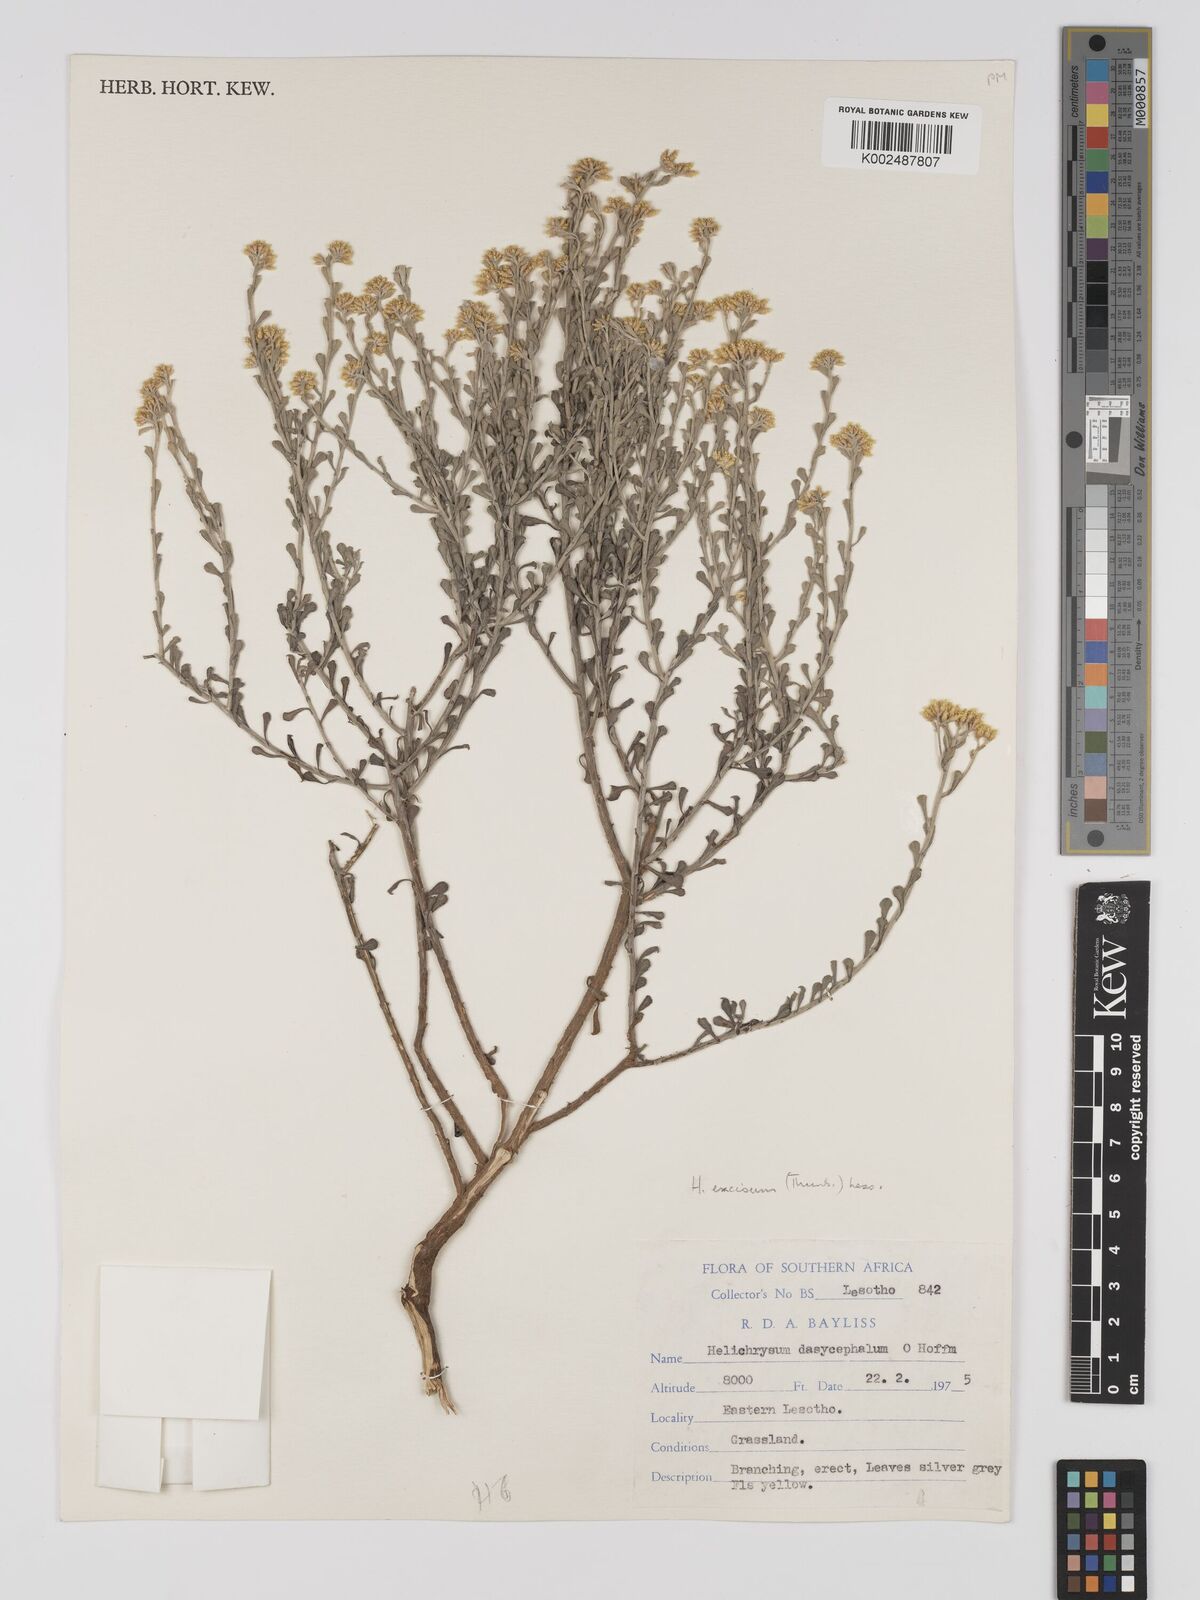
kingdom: Plantae
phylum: Tracheophyta
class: Magnoliopsida
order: Asterales
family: Asteraceae
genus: Helichrysum
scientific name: Helichrysum excisum
